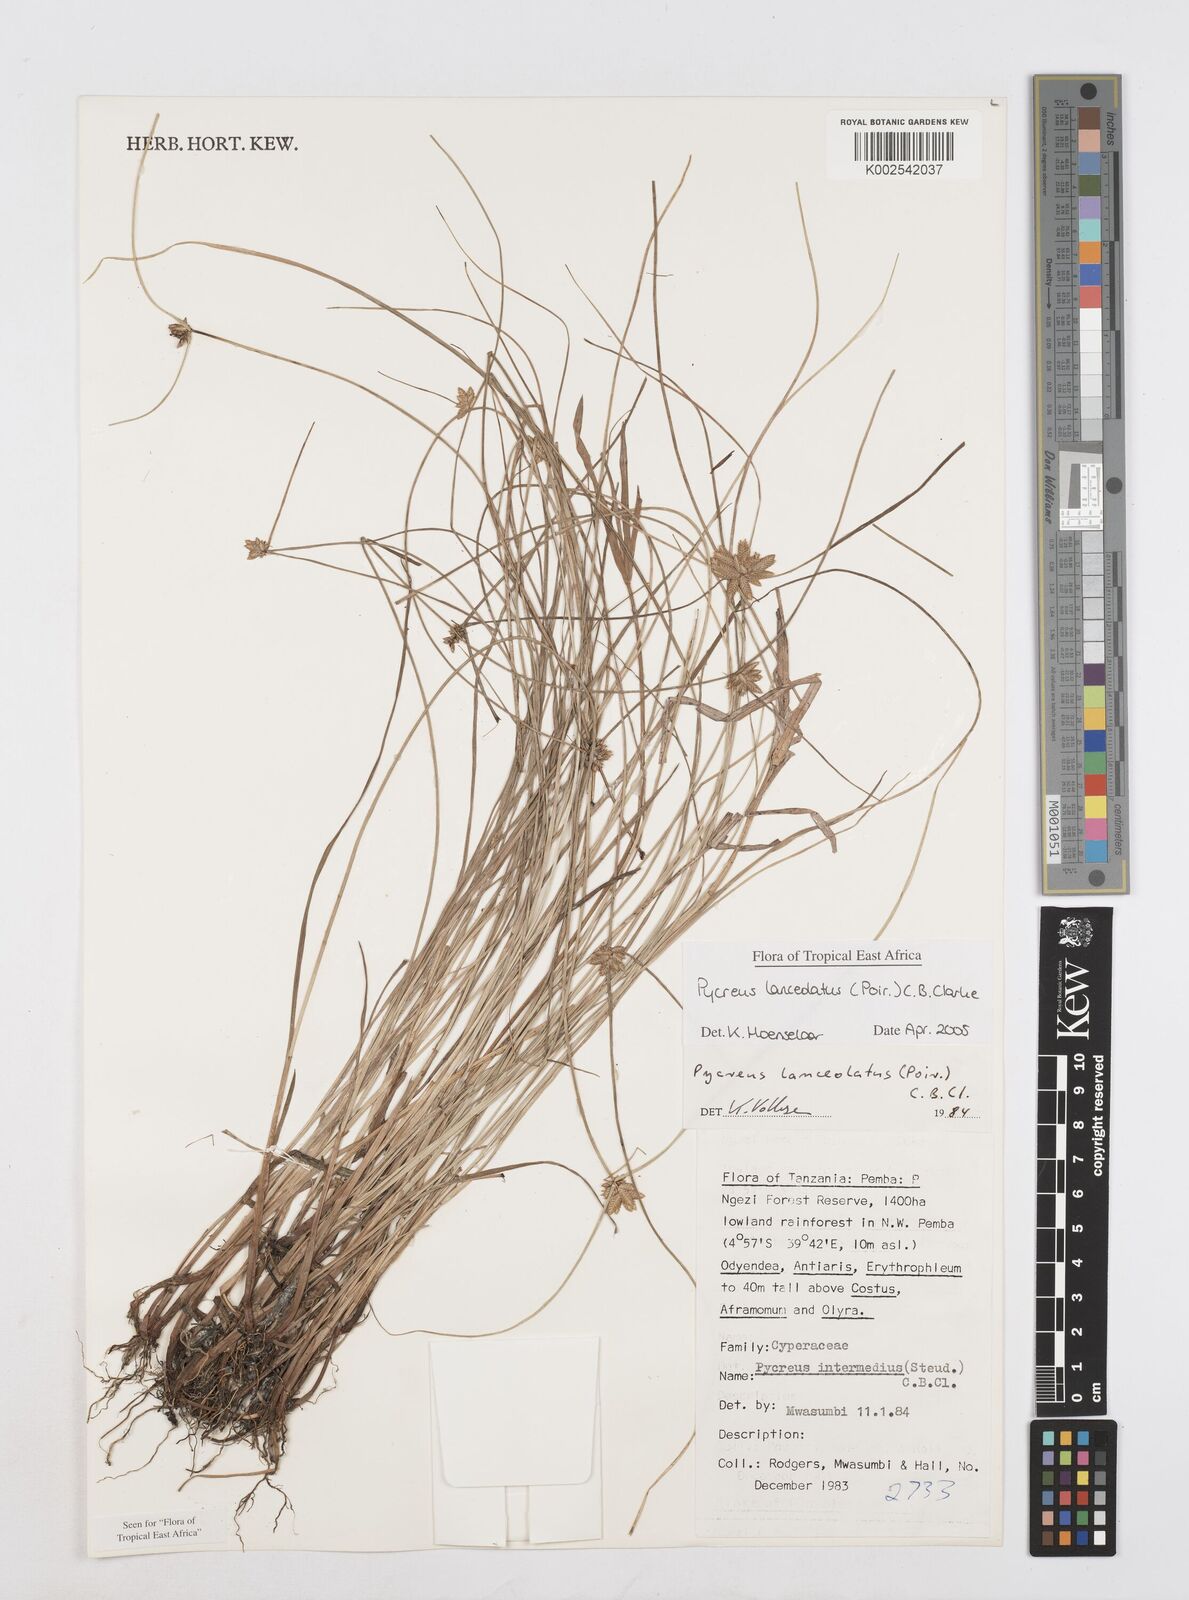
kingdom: Plantae
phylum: Tracheophyta
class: Liliopsida
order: Poales
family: Cyperaceae
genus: Cyperus
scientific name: Cyperus lanceolatus
